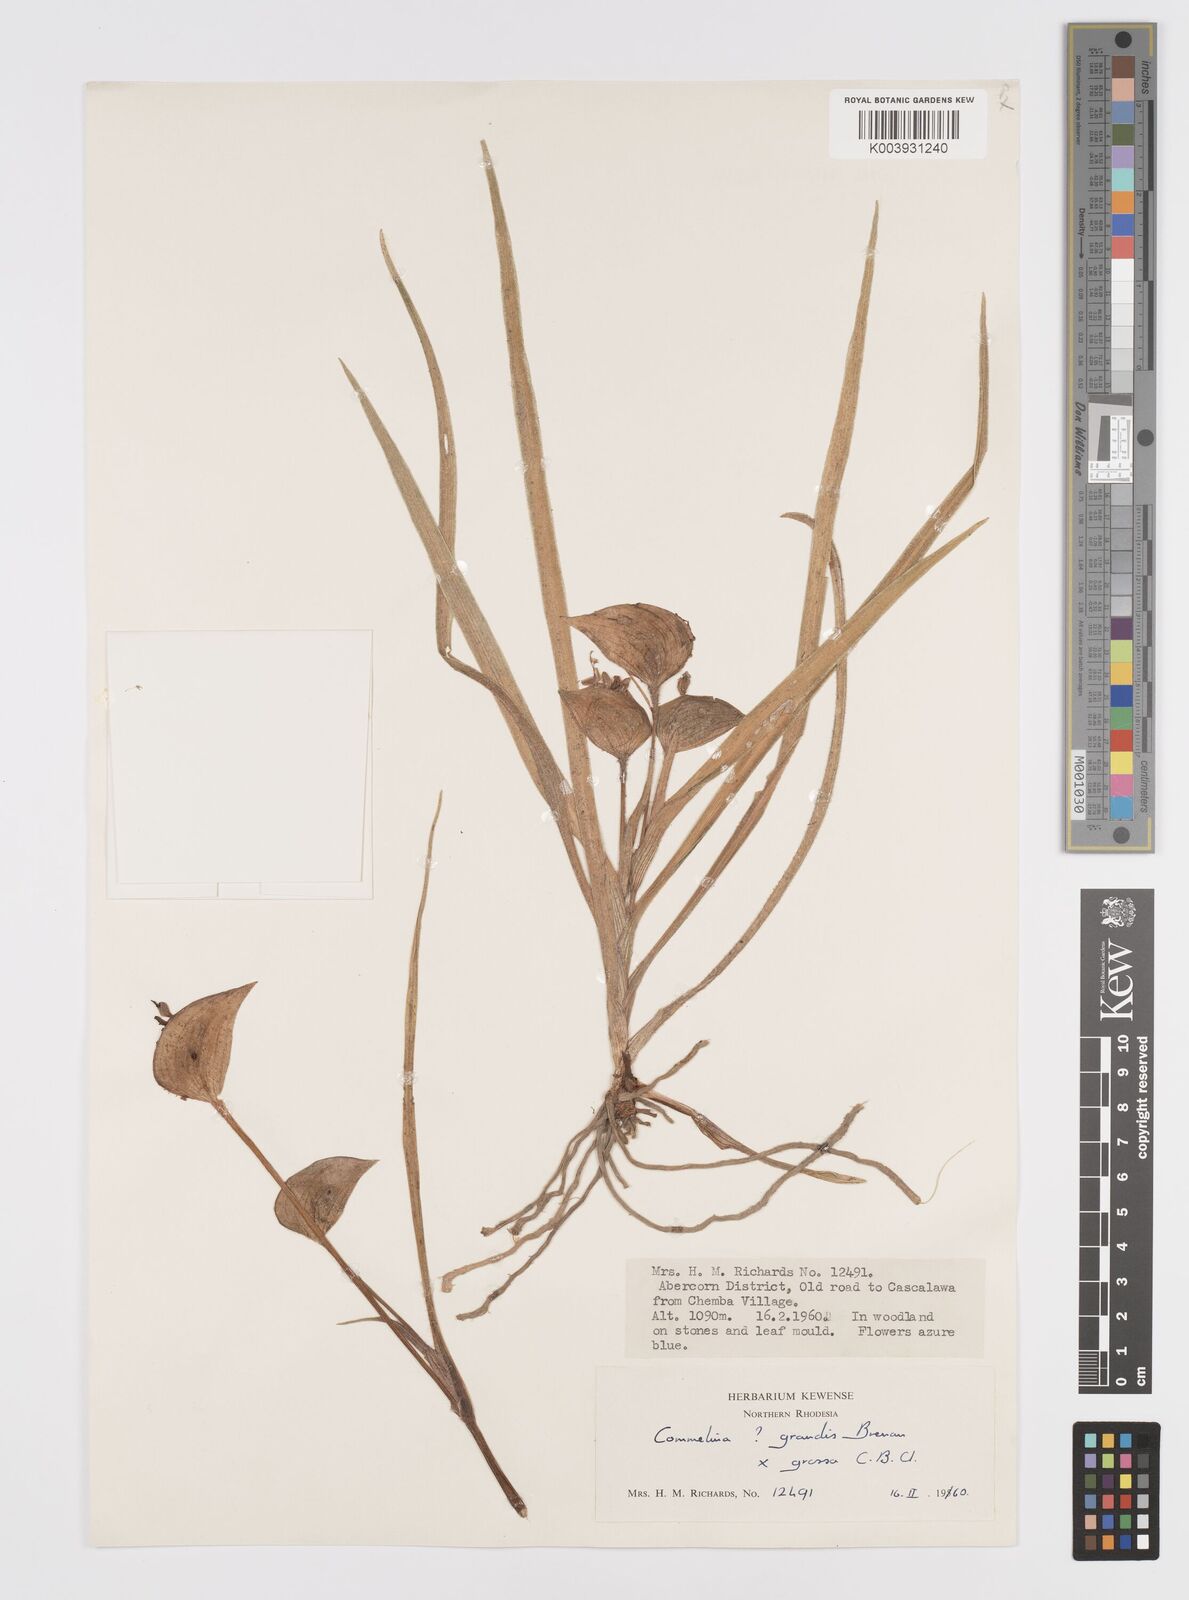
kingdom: Plantae
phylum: Tracheophyta
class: Liliopsida
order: Commelinales
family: Commelinaceae
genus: Commelina
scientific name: Commelina grandis
